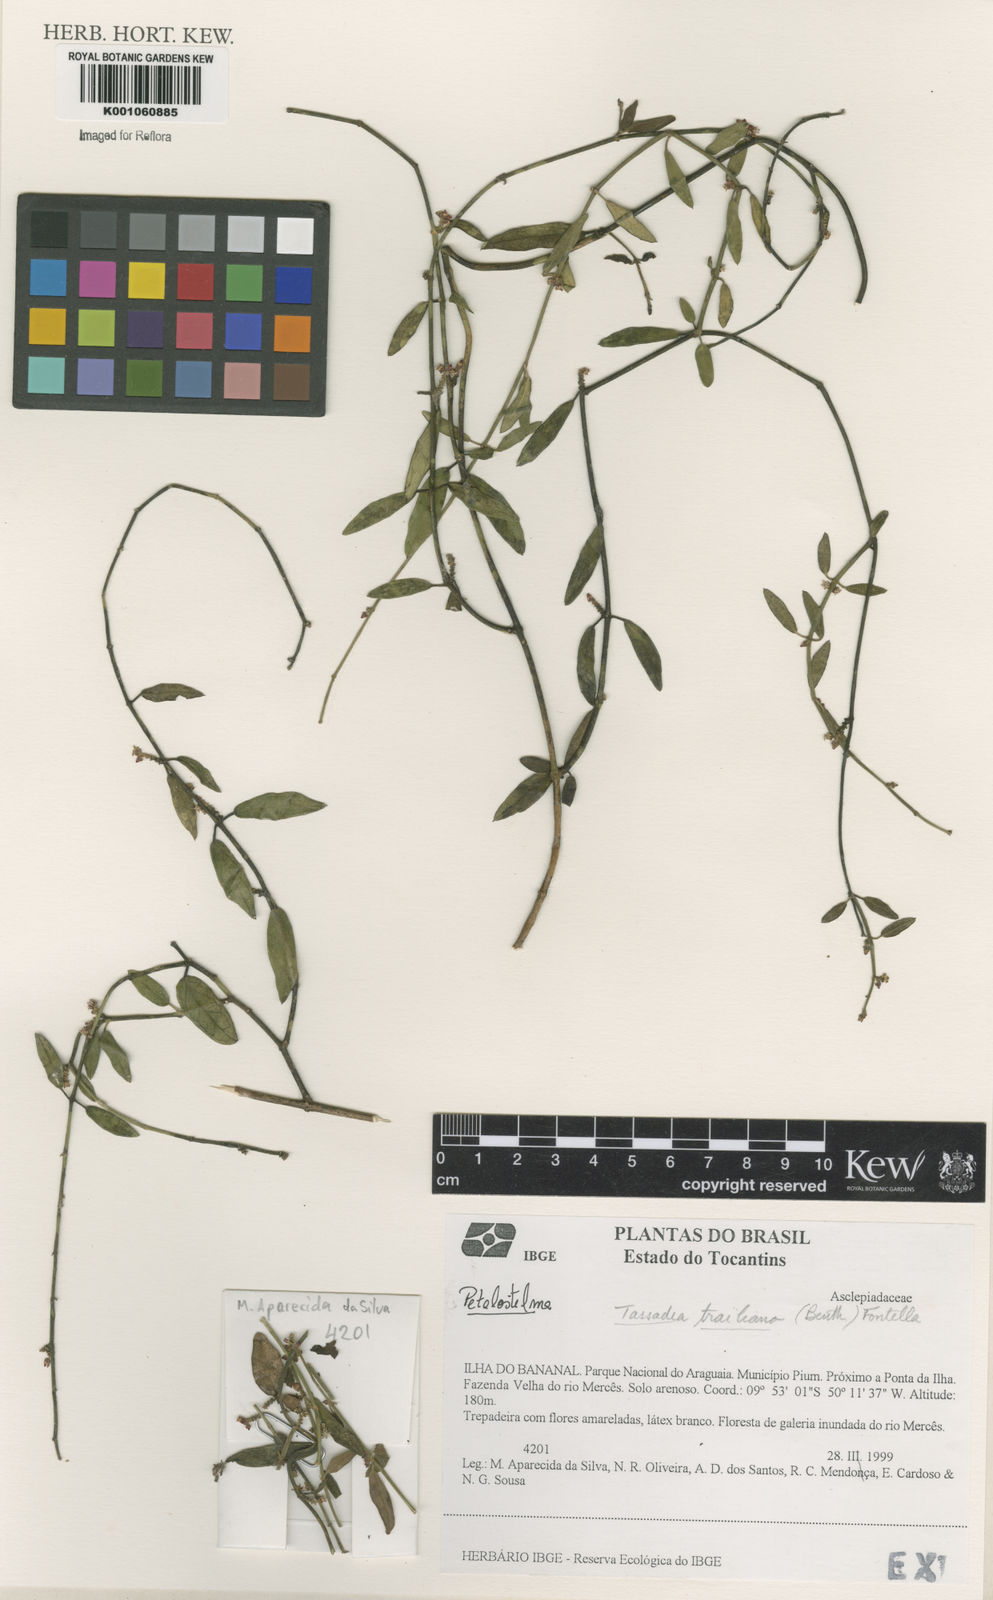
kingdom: Plantae
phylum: Tracheophyta
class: Magnoliopsida
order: Gentianales
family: Apocynaceae
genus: Tassadia
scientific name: Tassadia trailiana
